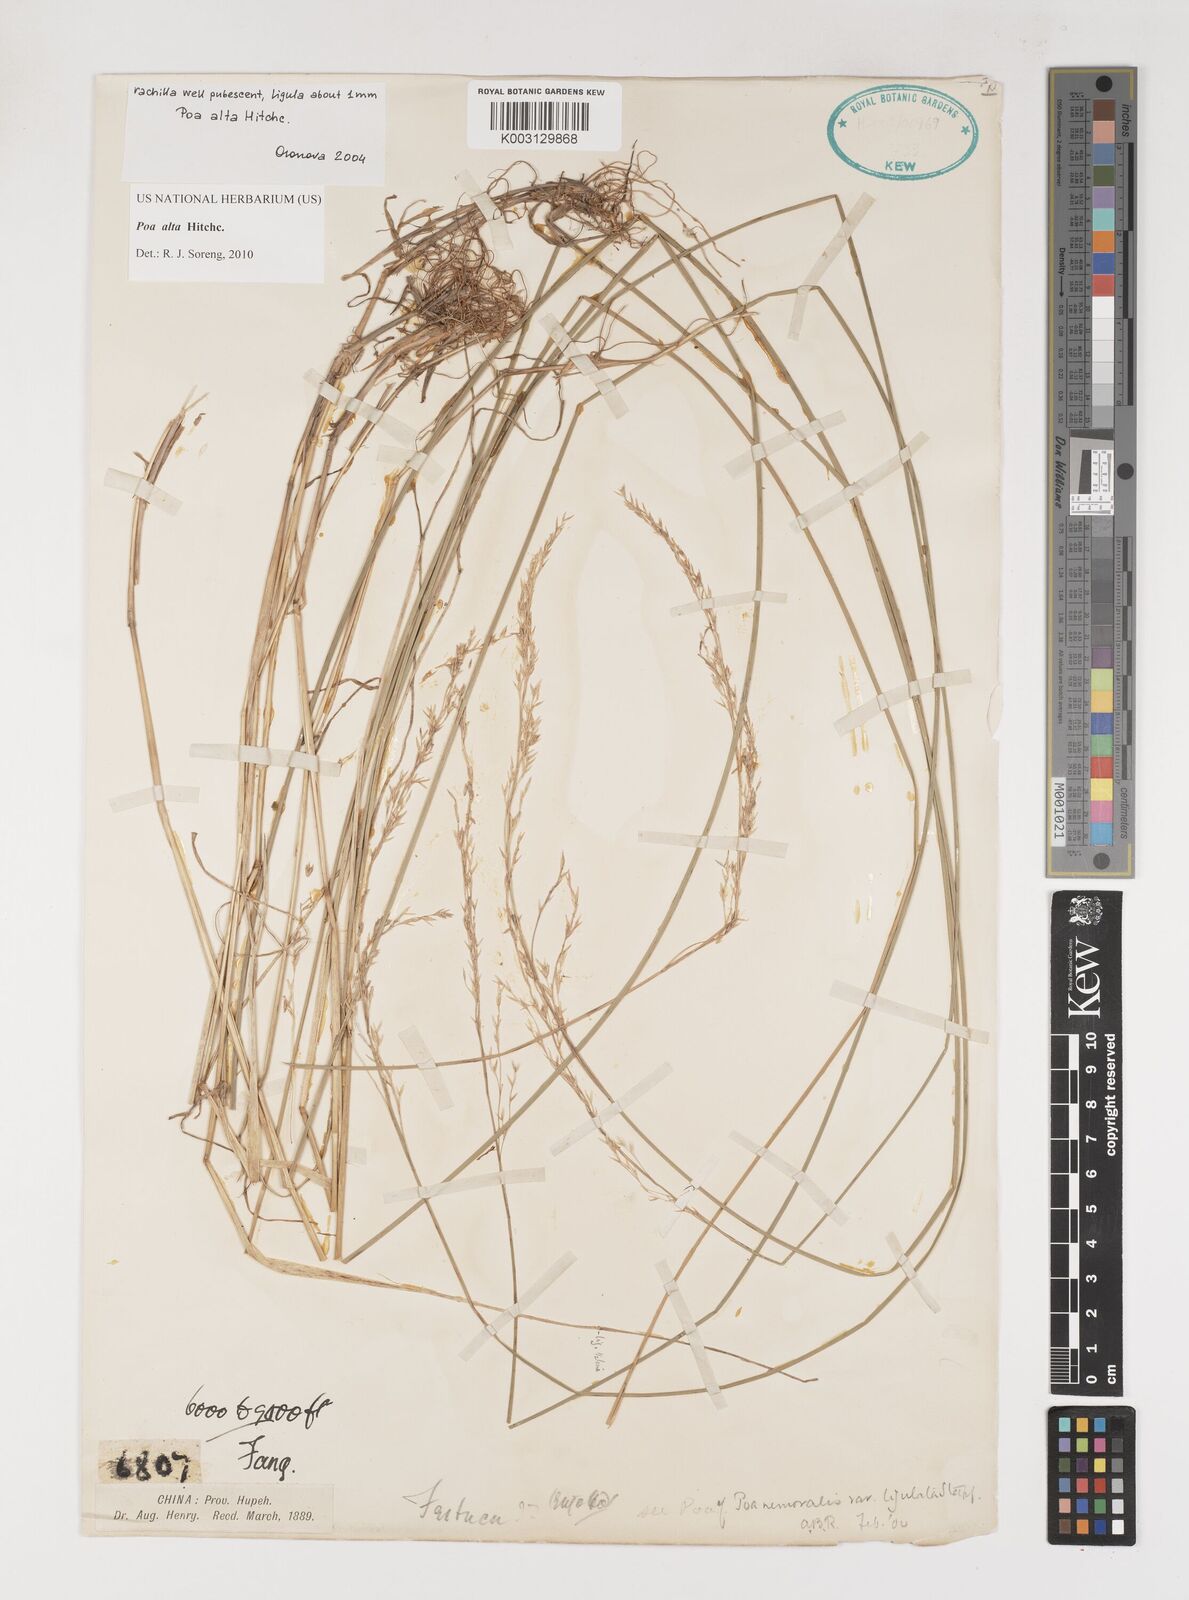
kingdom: Plantae
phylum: Tracheophyta
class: Liliopsida
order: Poales
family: Poaceae
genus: Poa
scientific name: Poa alta
